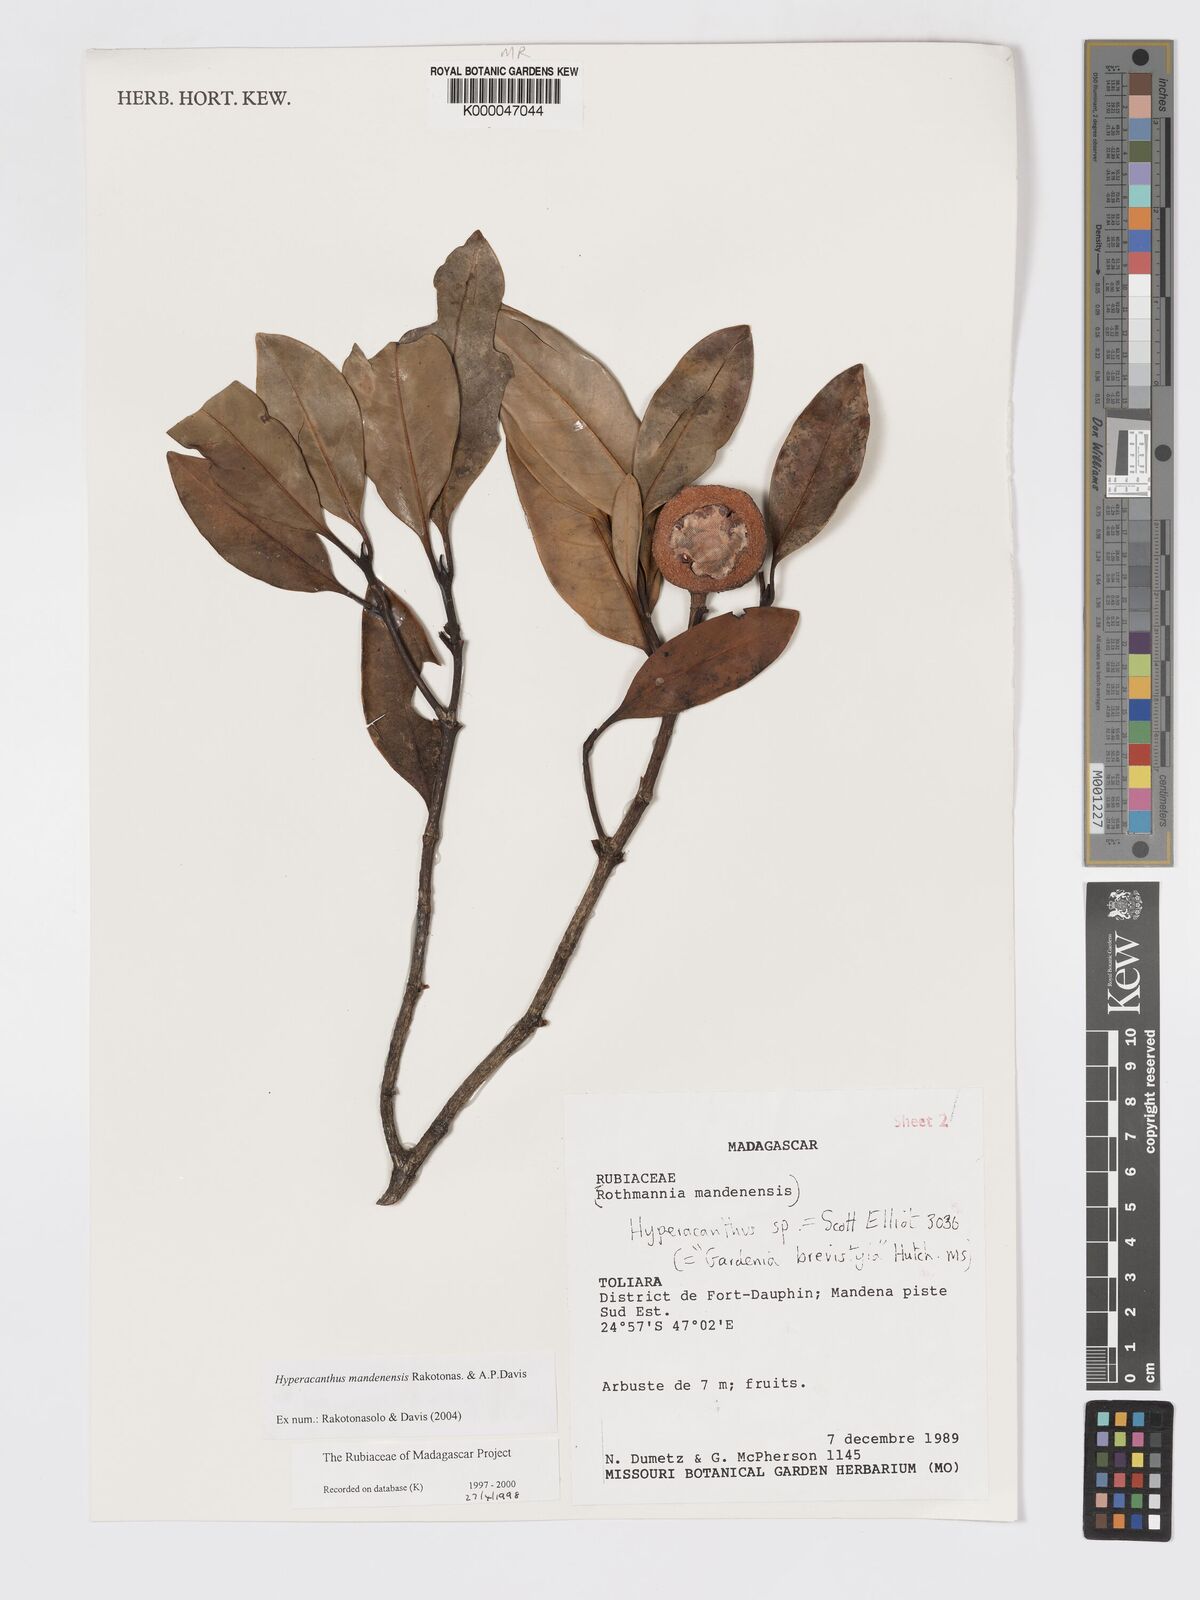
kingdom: Plantae
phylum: Tracheophyta
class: Magnoliopsida
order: Gentianales
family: Rubiaceae
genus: Hyperacanthus
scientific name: Hyperacanthus mandenensis
